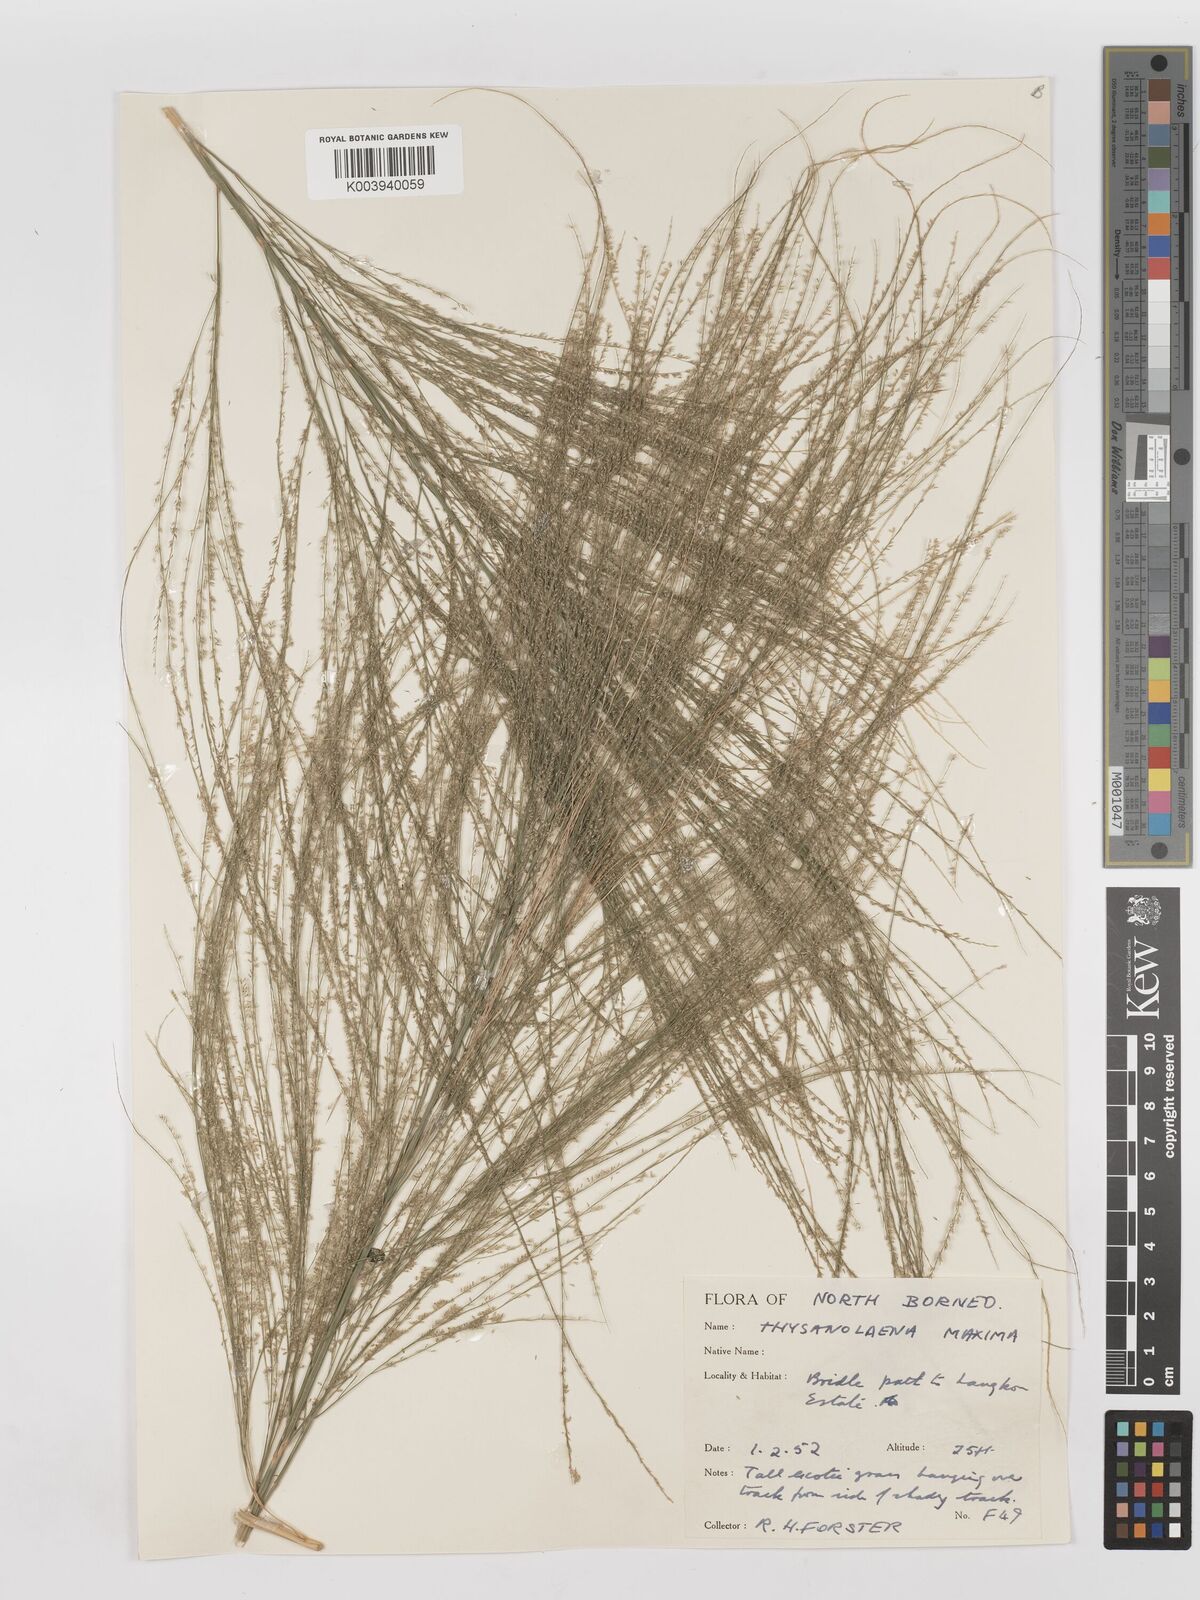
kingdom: Plantae
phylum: Tracheophyta
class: Liliopsida
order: Poales
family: Poaceae
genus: Thysanolaena
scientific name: Thysanolaena latifolia
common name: Tiger grass
